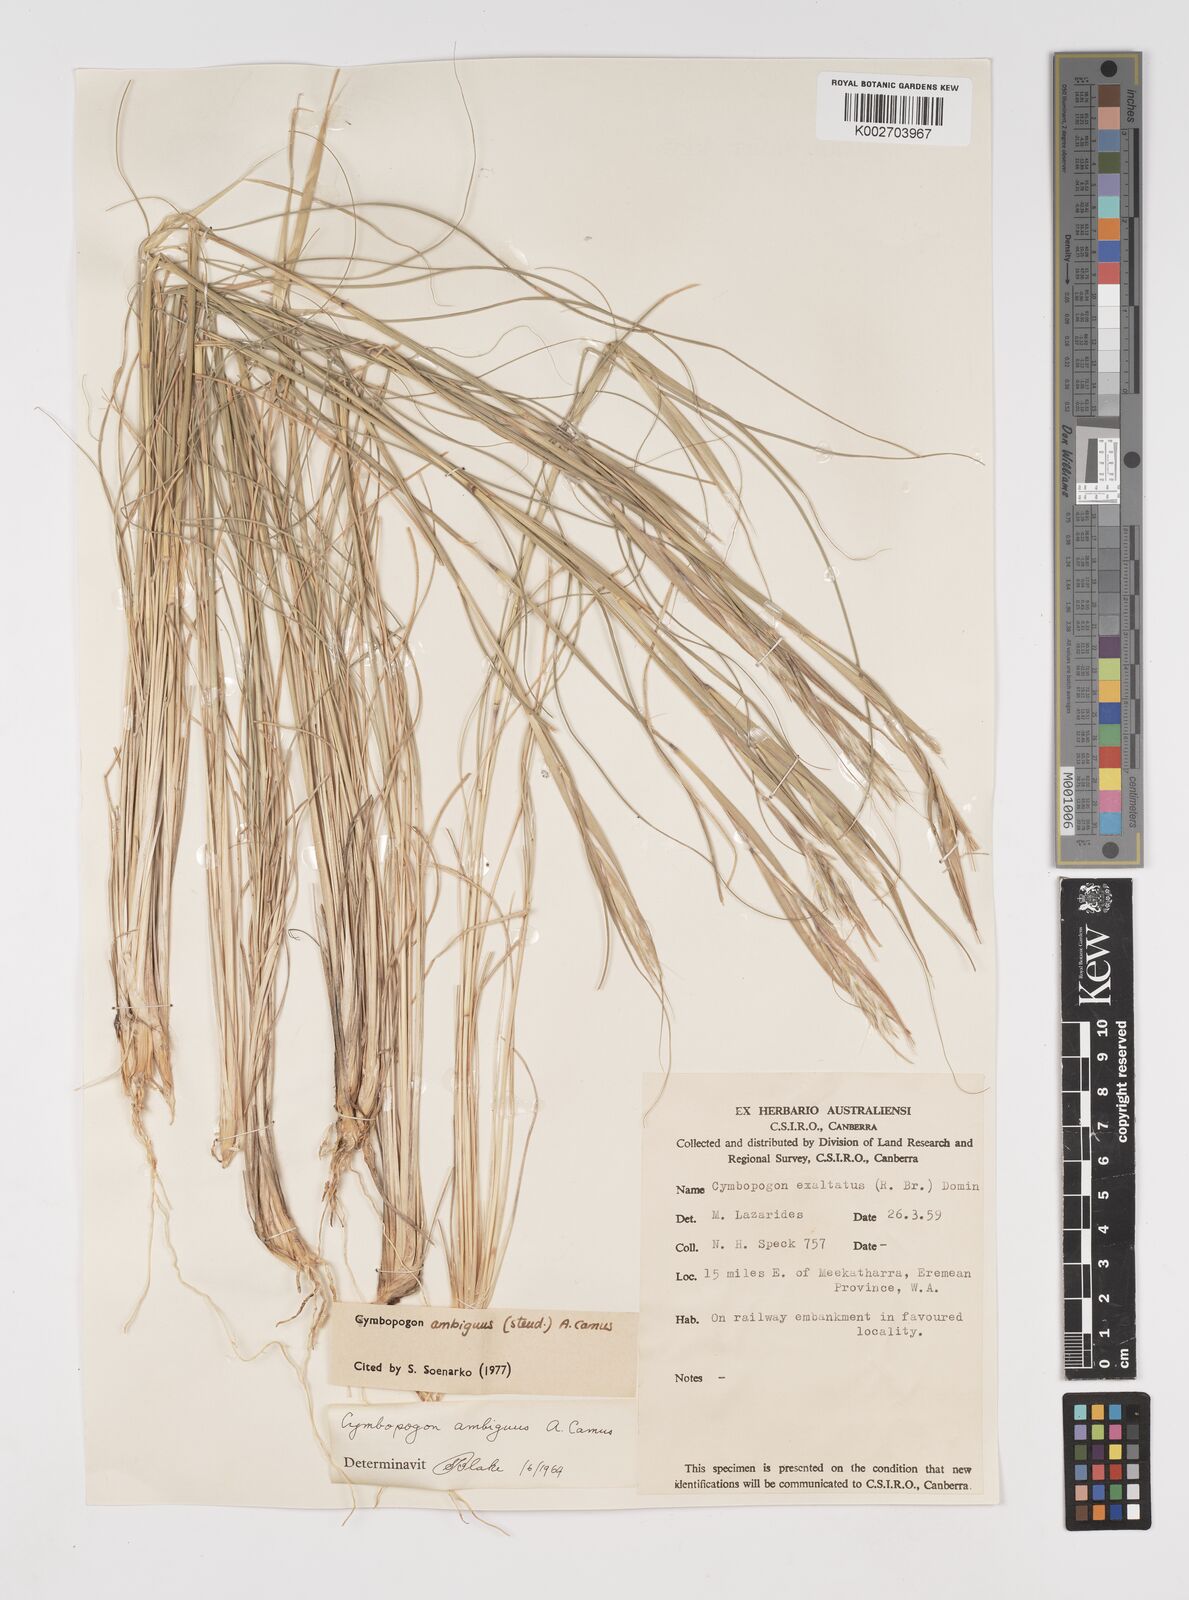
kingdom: Plantae
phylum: Tracheophyta
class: Liliopsida
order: Poales
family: Poaceae
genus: Cymbopogon
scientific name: Cymbopogon ambiguus
